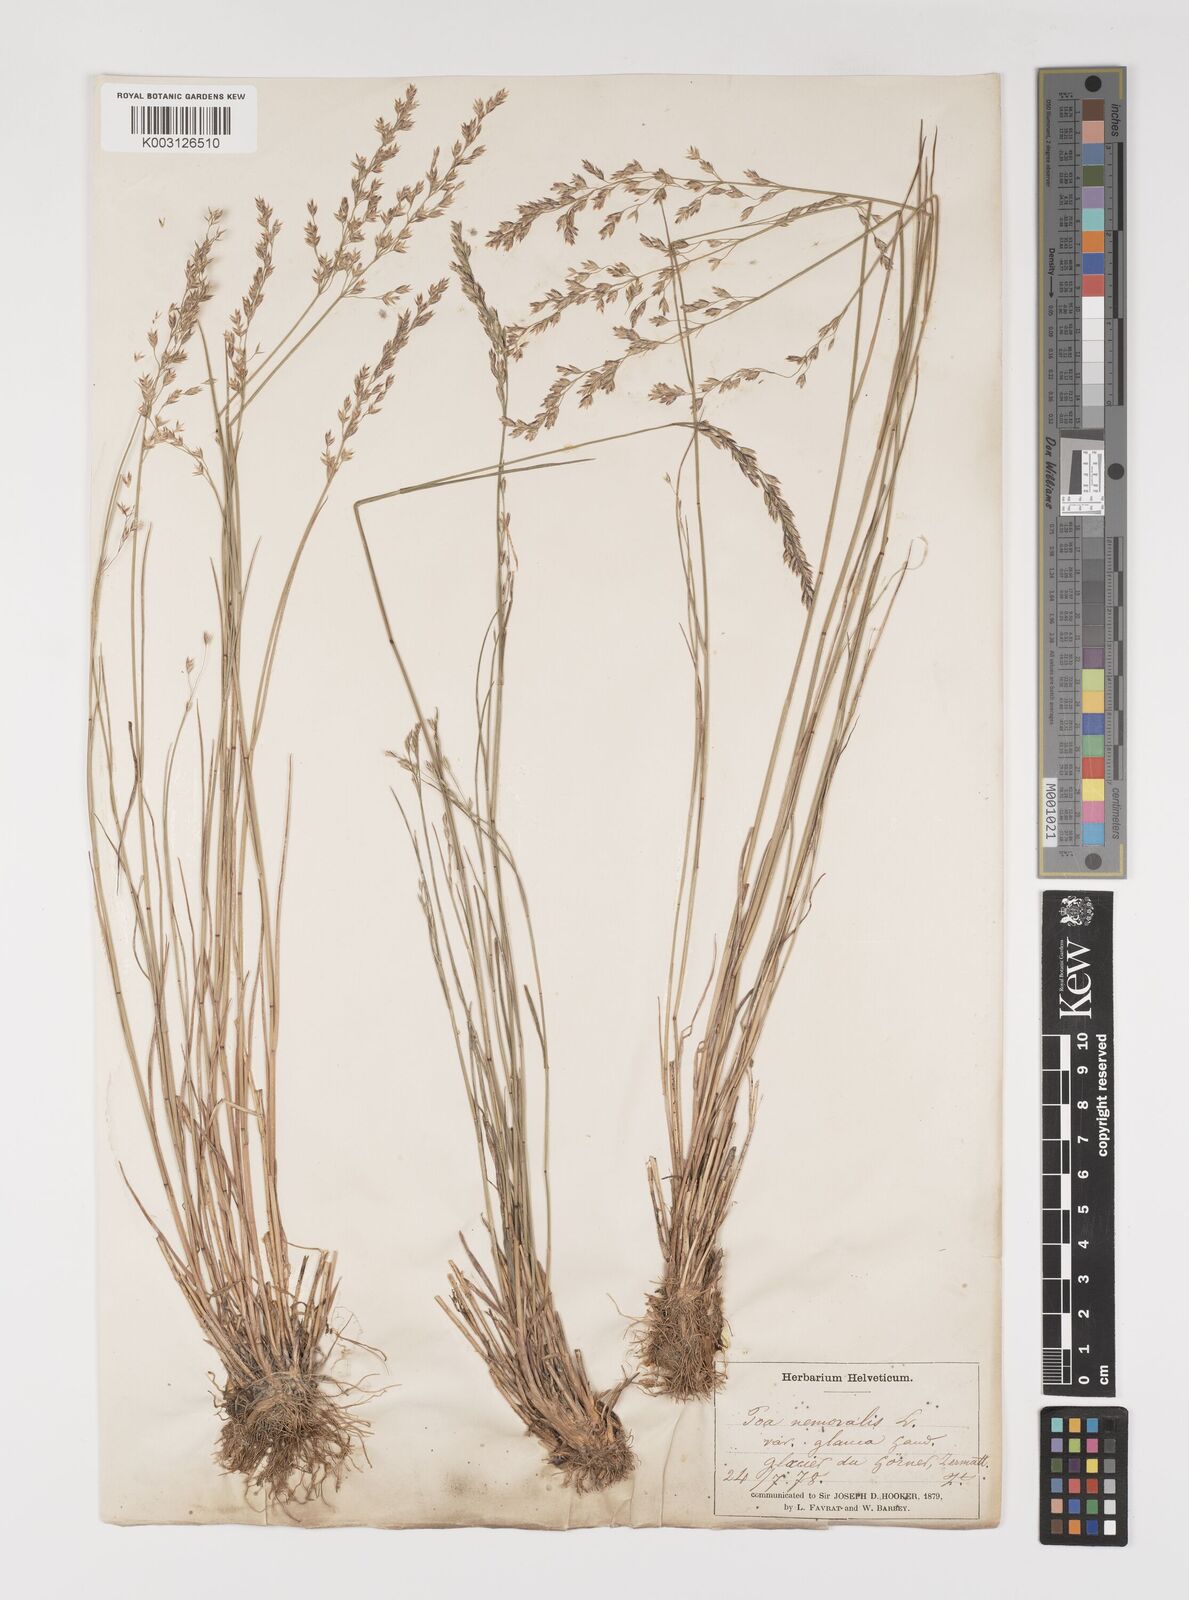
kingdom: Plantae
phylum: Tracheophyta
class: Liliopsida
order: Poales
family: Poaceae
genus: Poa
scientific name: Poa nemoralis
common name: Wood bluegrass
